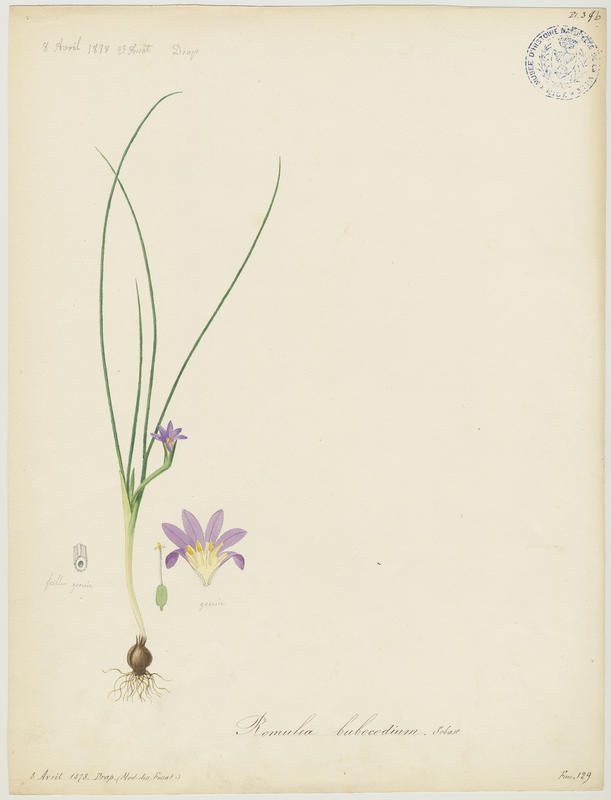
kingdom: Plantae
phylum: Tracheophyta
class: Liliopsida
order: Asparagales
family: Iridaceae
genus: Romulea
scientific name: Romulea bulbocodium
